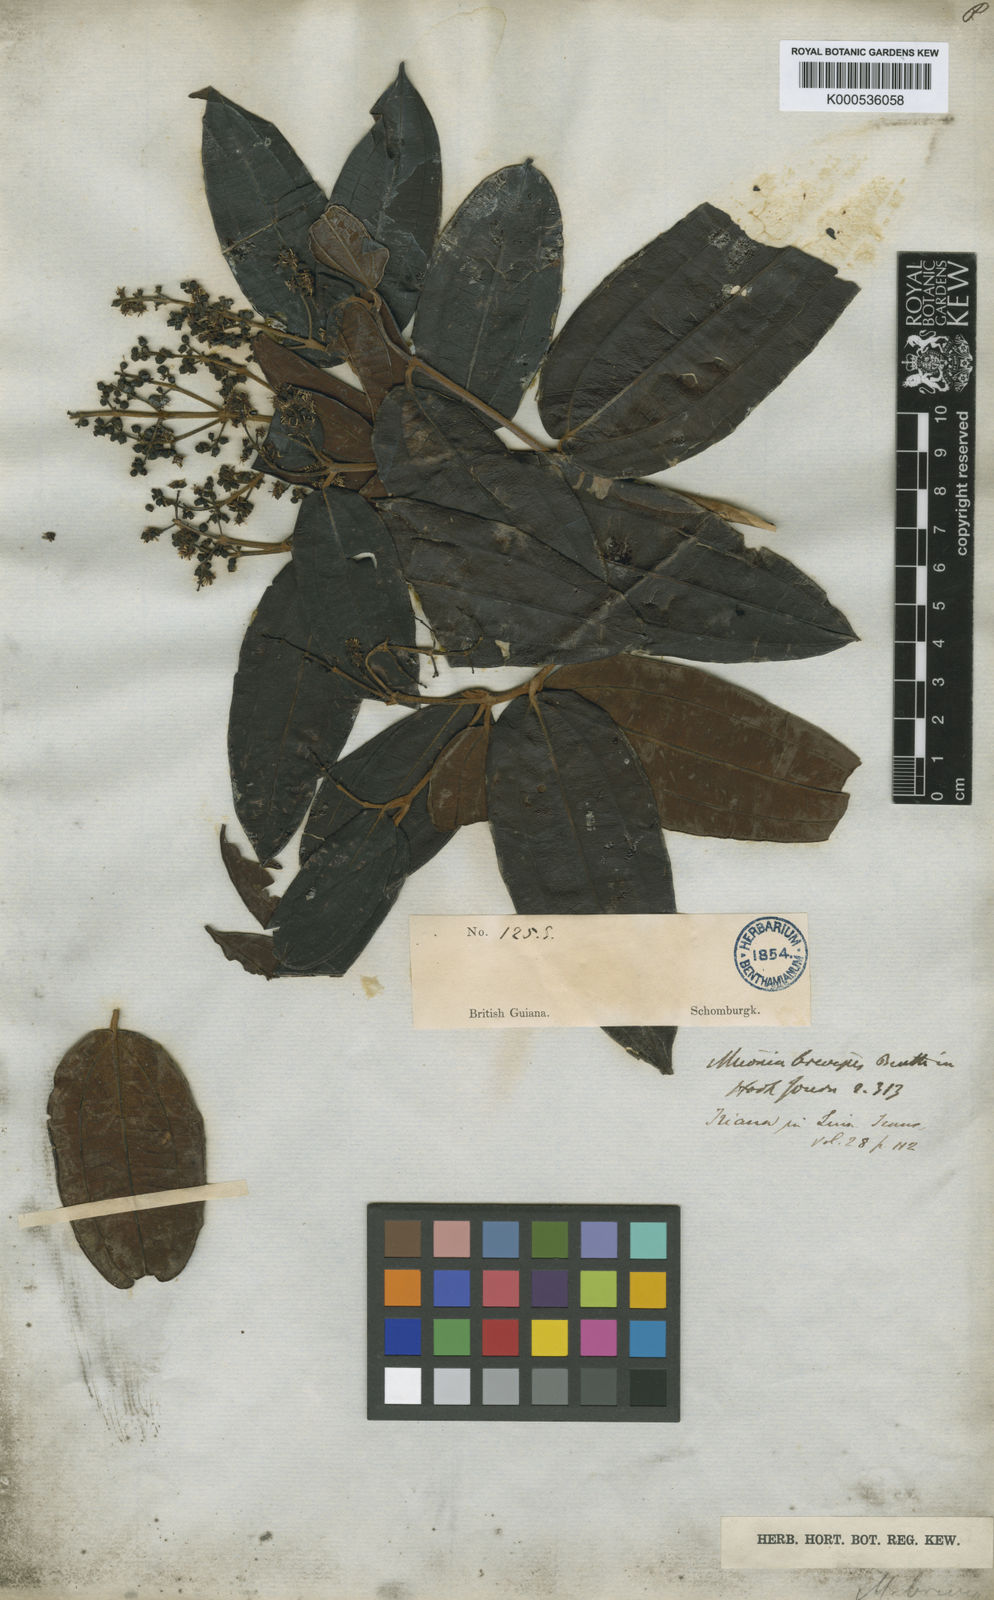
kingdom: Plantae
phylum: Tracheophyta
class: Magnoliopsida
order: Myrtales
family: Melastomataceae
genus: Miconia
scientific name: Miconia brevipes
